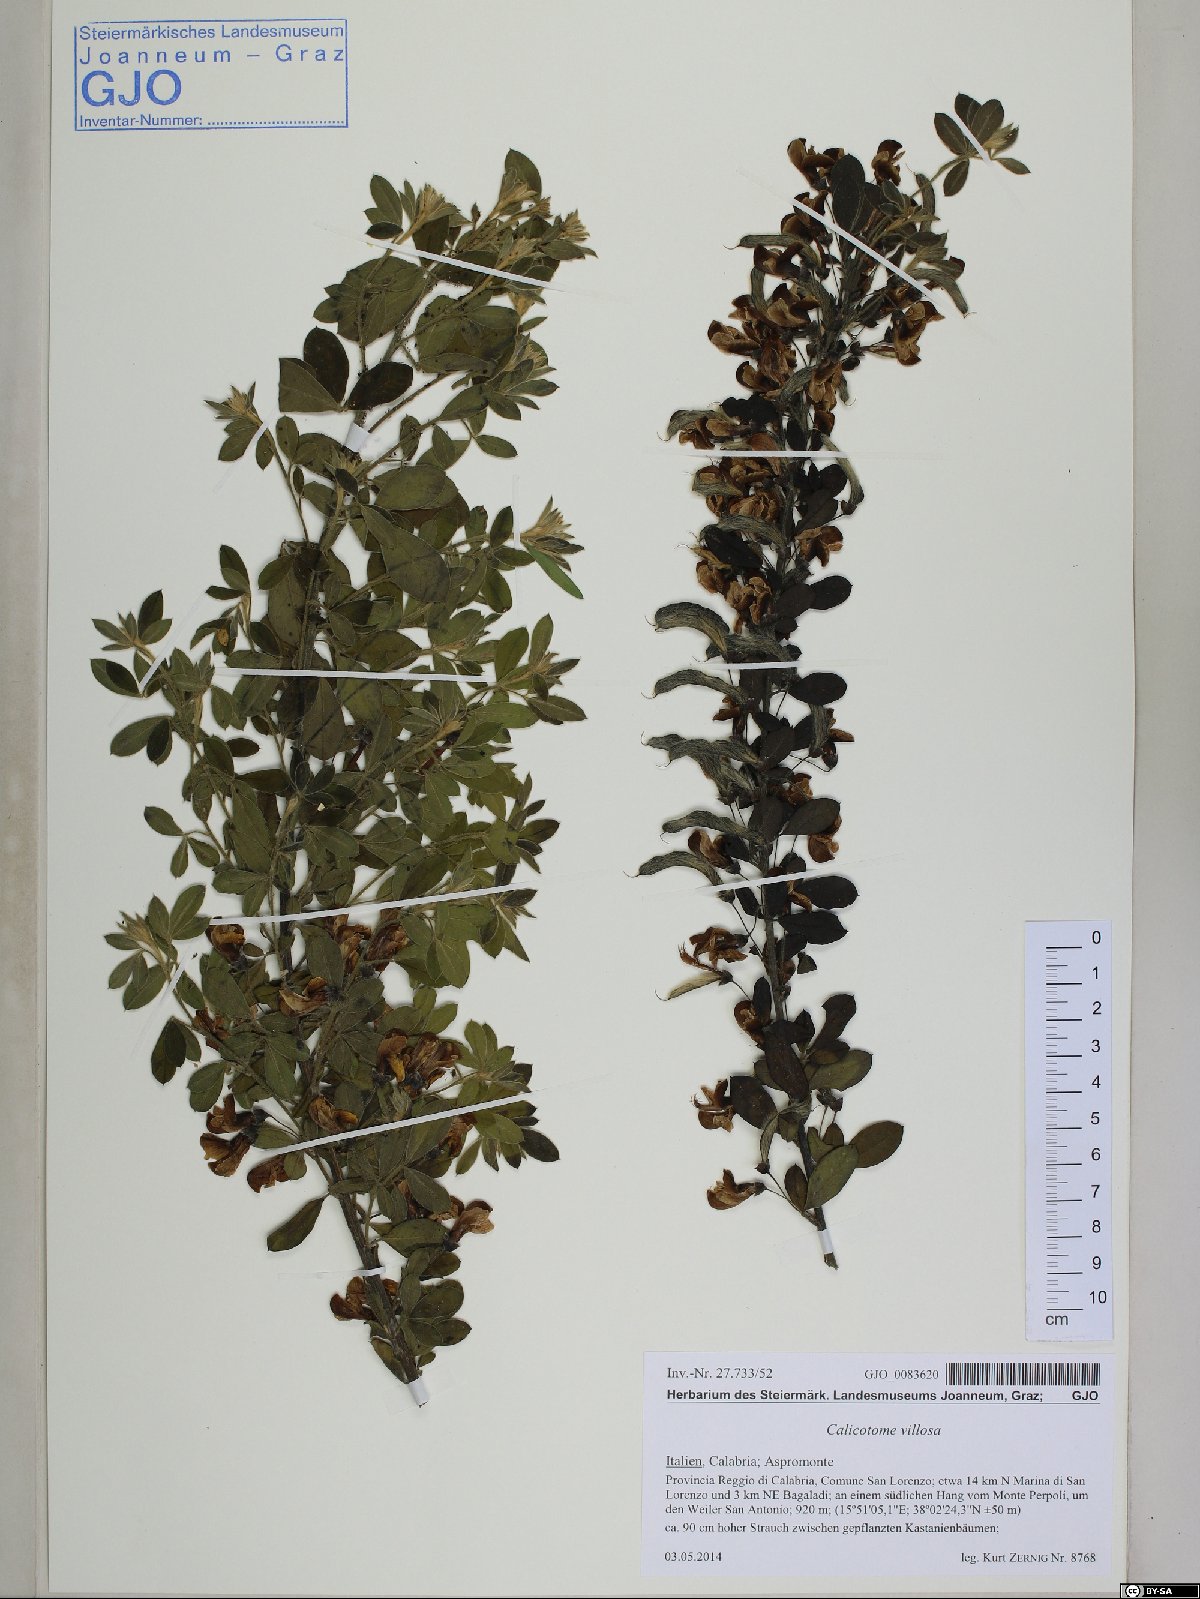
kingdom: Plantae
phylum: Tracheophyta
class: Magnoliopsida
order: Fabales
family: Fabaceae
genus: Calicotome
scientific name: Calicotome villosa
